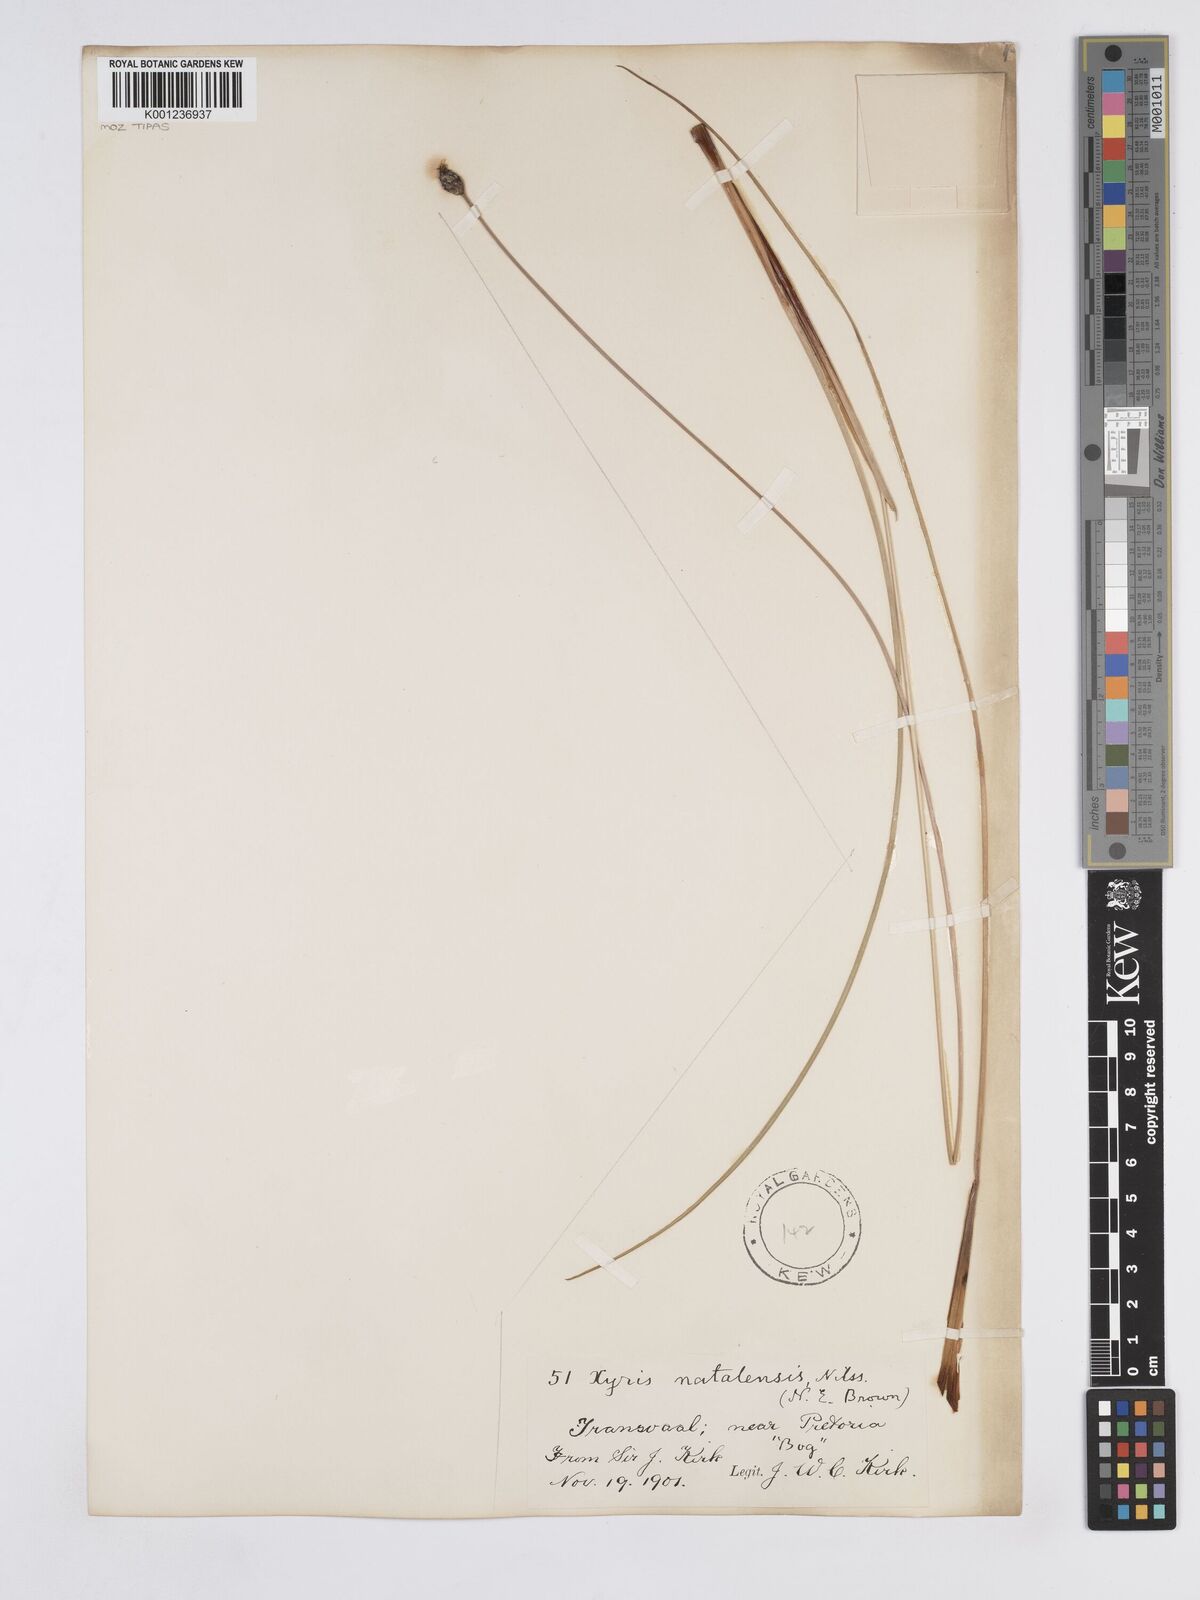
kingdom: Plantae
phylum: Tracheophyta
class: Liliopsida
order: Poales
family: Xyridaceae
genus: Xyris
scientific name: Xyris natalensis
